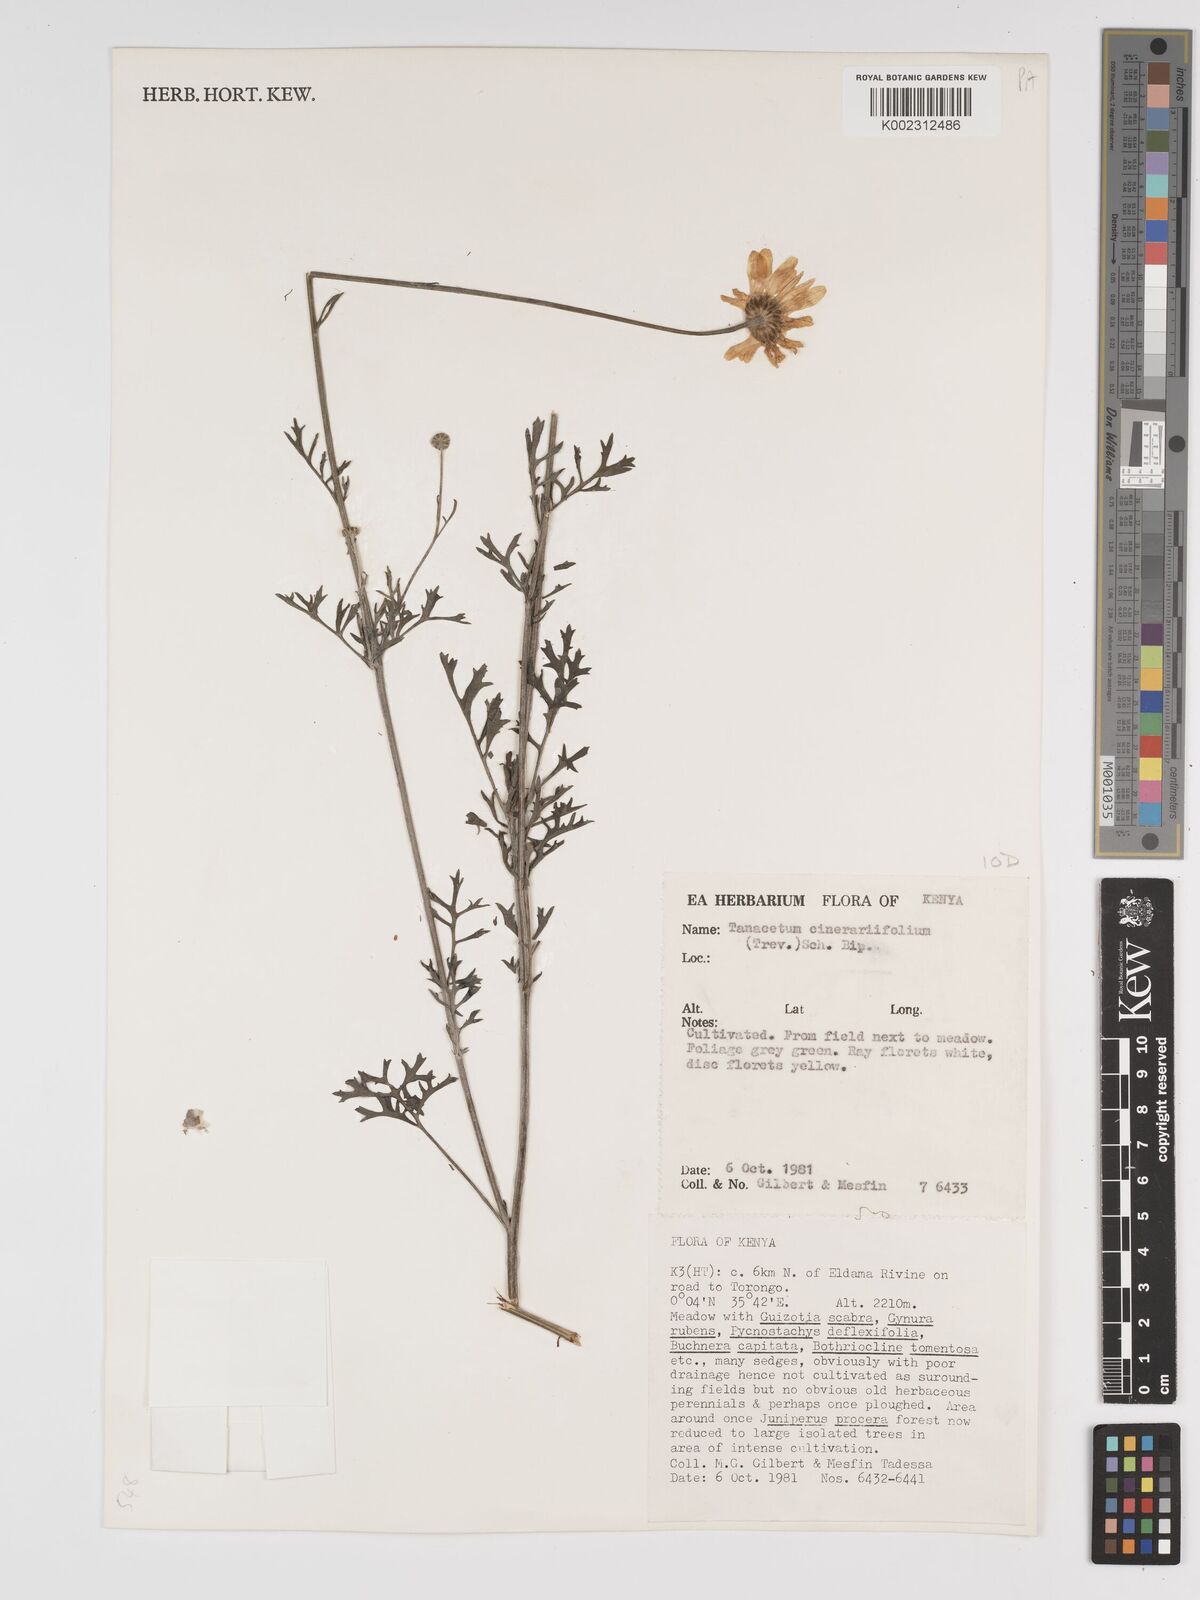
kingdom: Plantae
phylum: Tracheophyta
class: Magnoliopsida
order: Asterales
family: Asteraceae
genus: Tanacetum
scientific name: Tanacetum cinerariifolium
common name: Dalmatian pyrethrum
